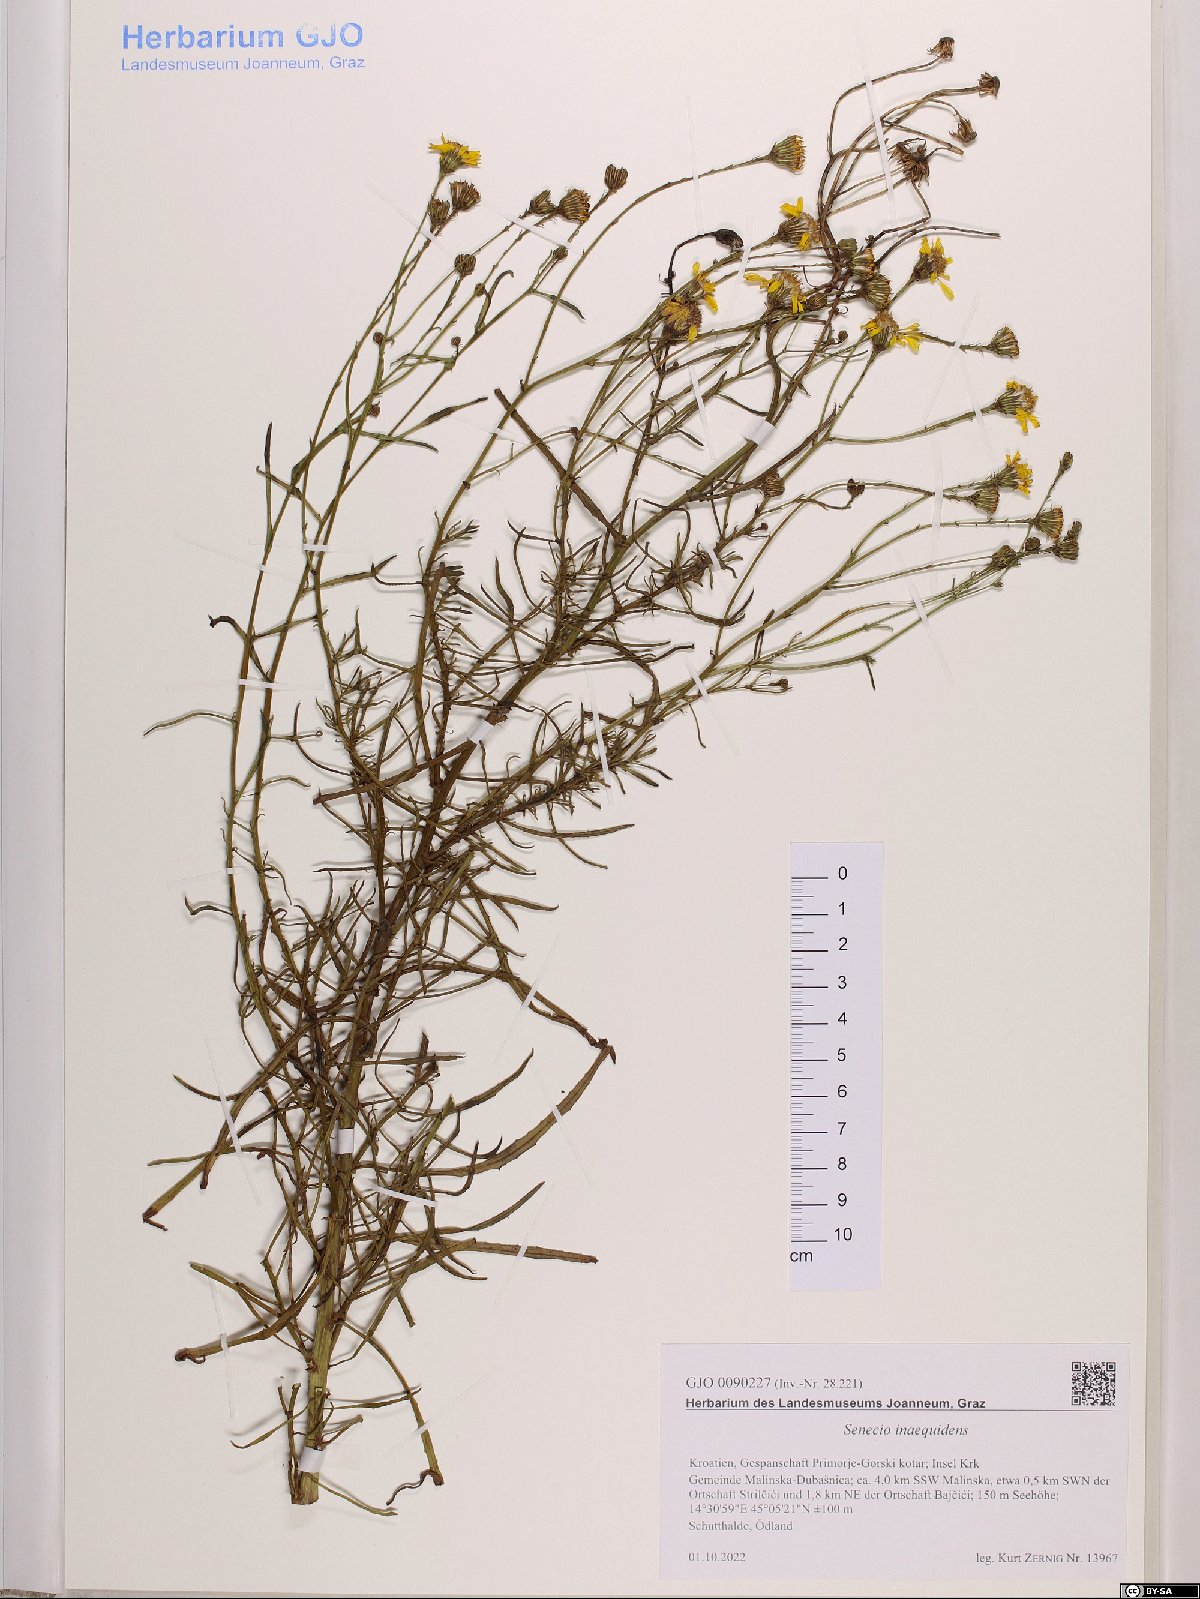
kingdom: Plantae
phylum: Tracheophyta
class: Magnoliopsida
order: Asterales
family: Asteraceae
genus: Senecio
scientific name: Senecio inaequidens
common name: Narrow-leaved ragwort
